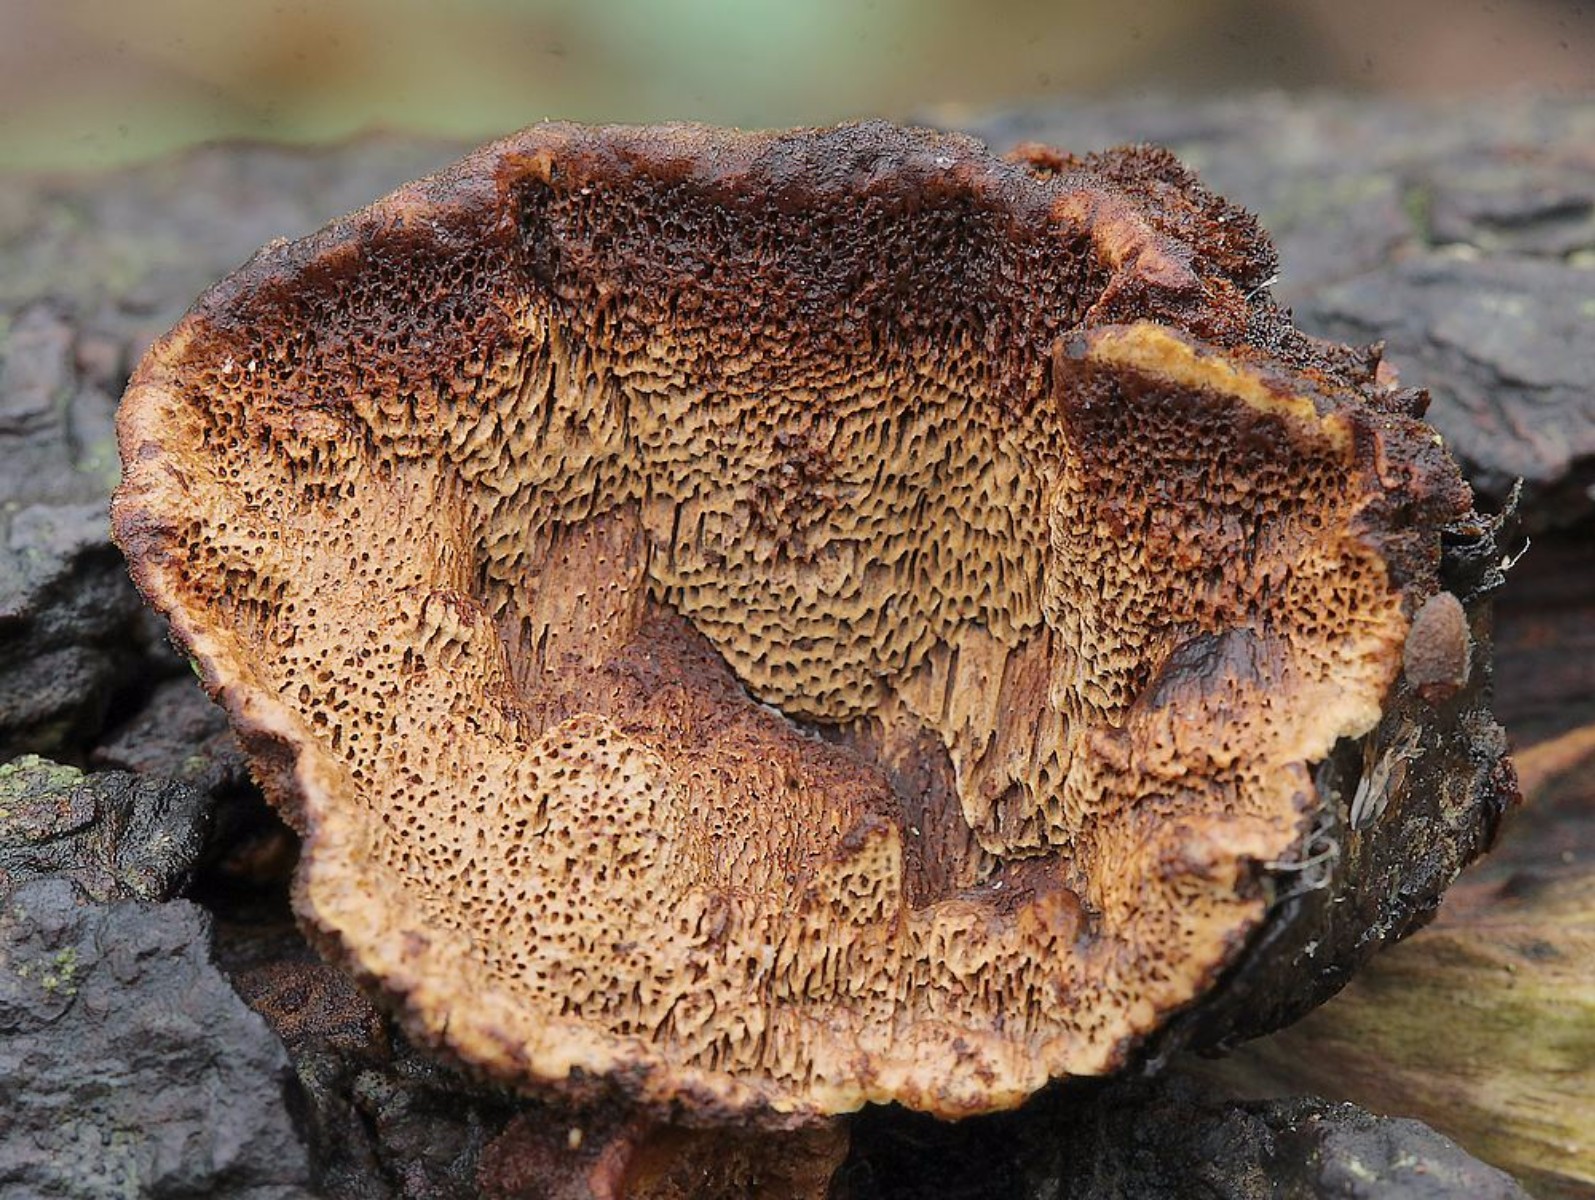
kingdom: Fungi
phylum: Basidiomycota
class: Agaricomycetes
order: Hymenochaetales
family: Hymenochaetaceae
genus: Phellinopsis
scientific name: Phellinopsis conchata
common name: pile-ildporesvamp
